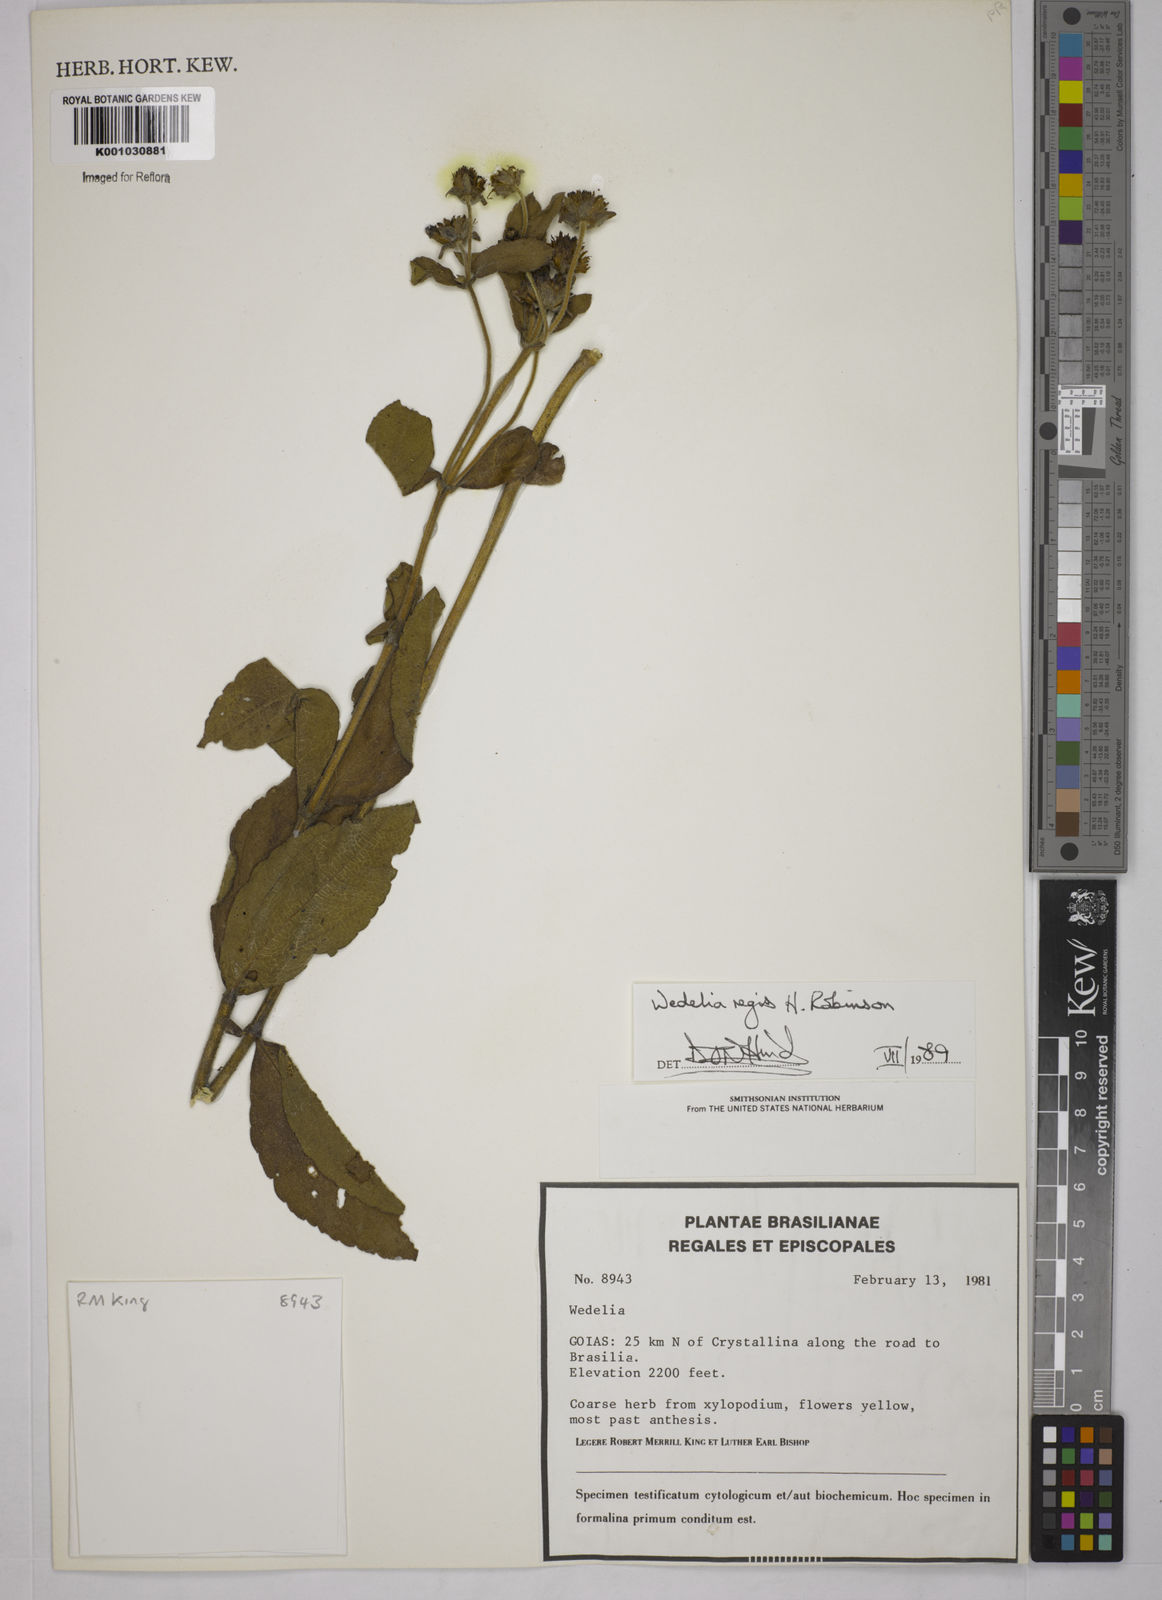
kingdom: Plantae
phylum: Tracheophyta
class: Magnoliopsida
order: Asterales
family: Asteraceae
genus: Wedelia
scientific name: Wedelia regis
